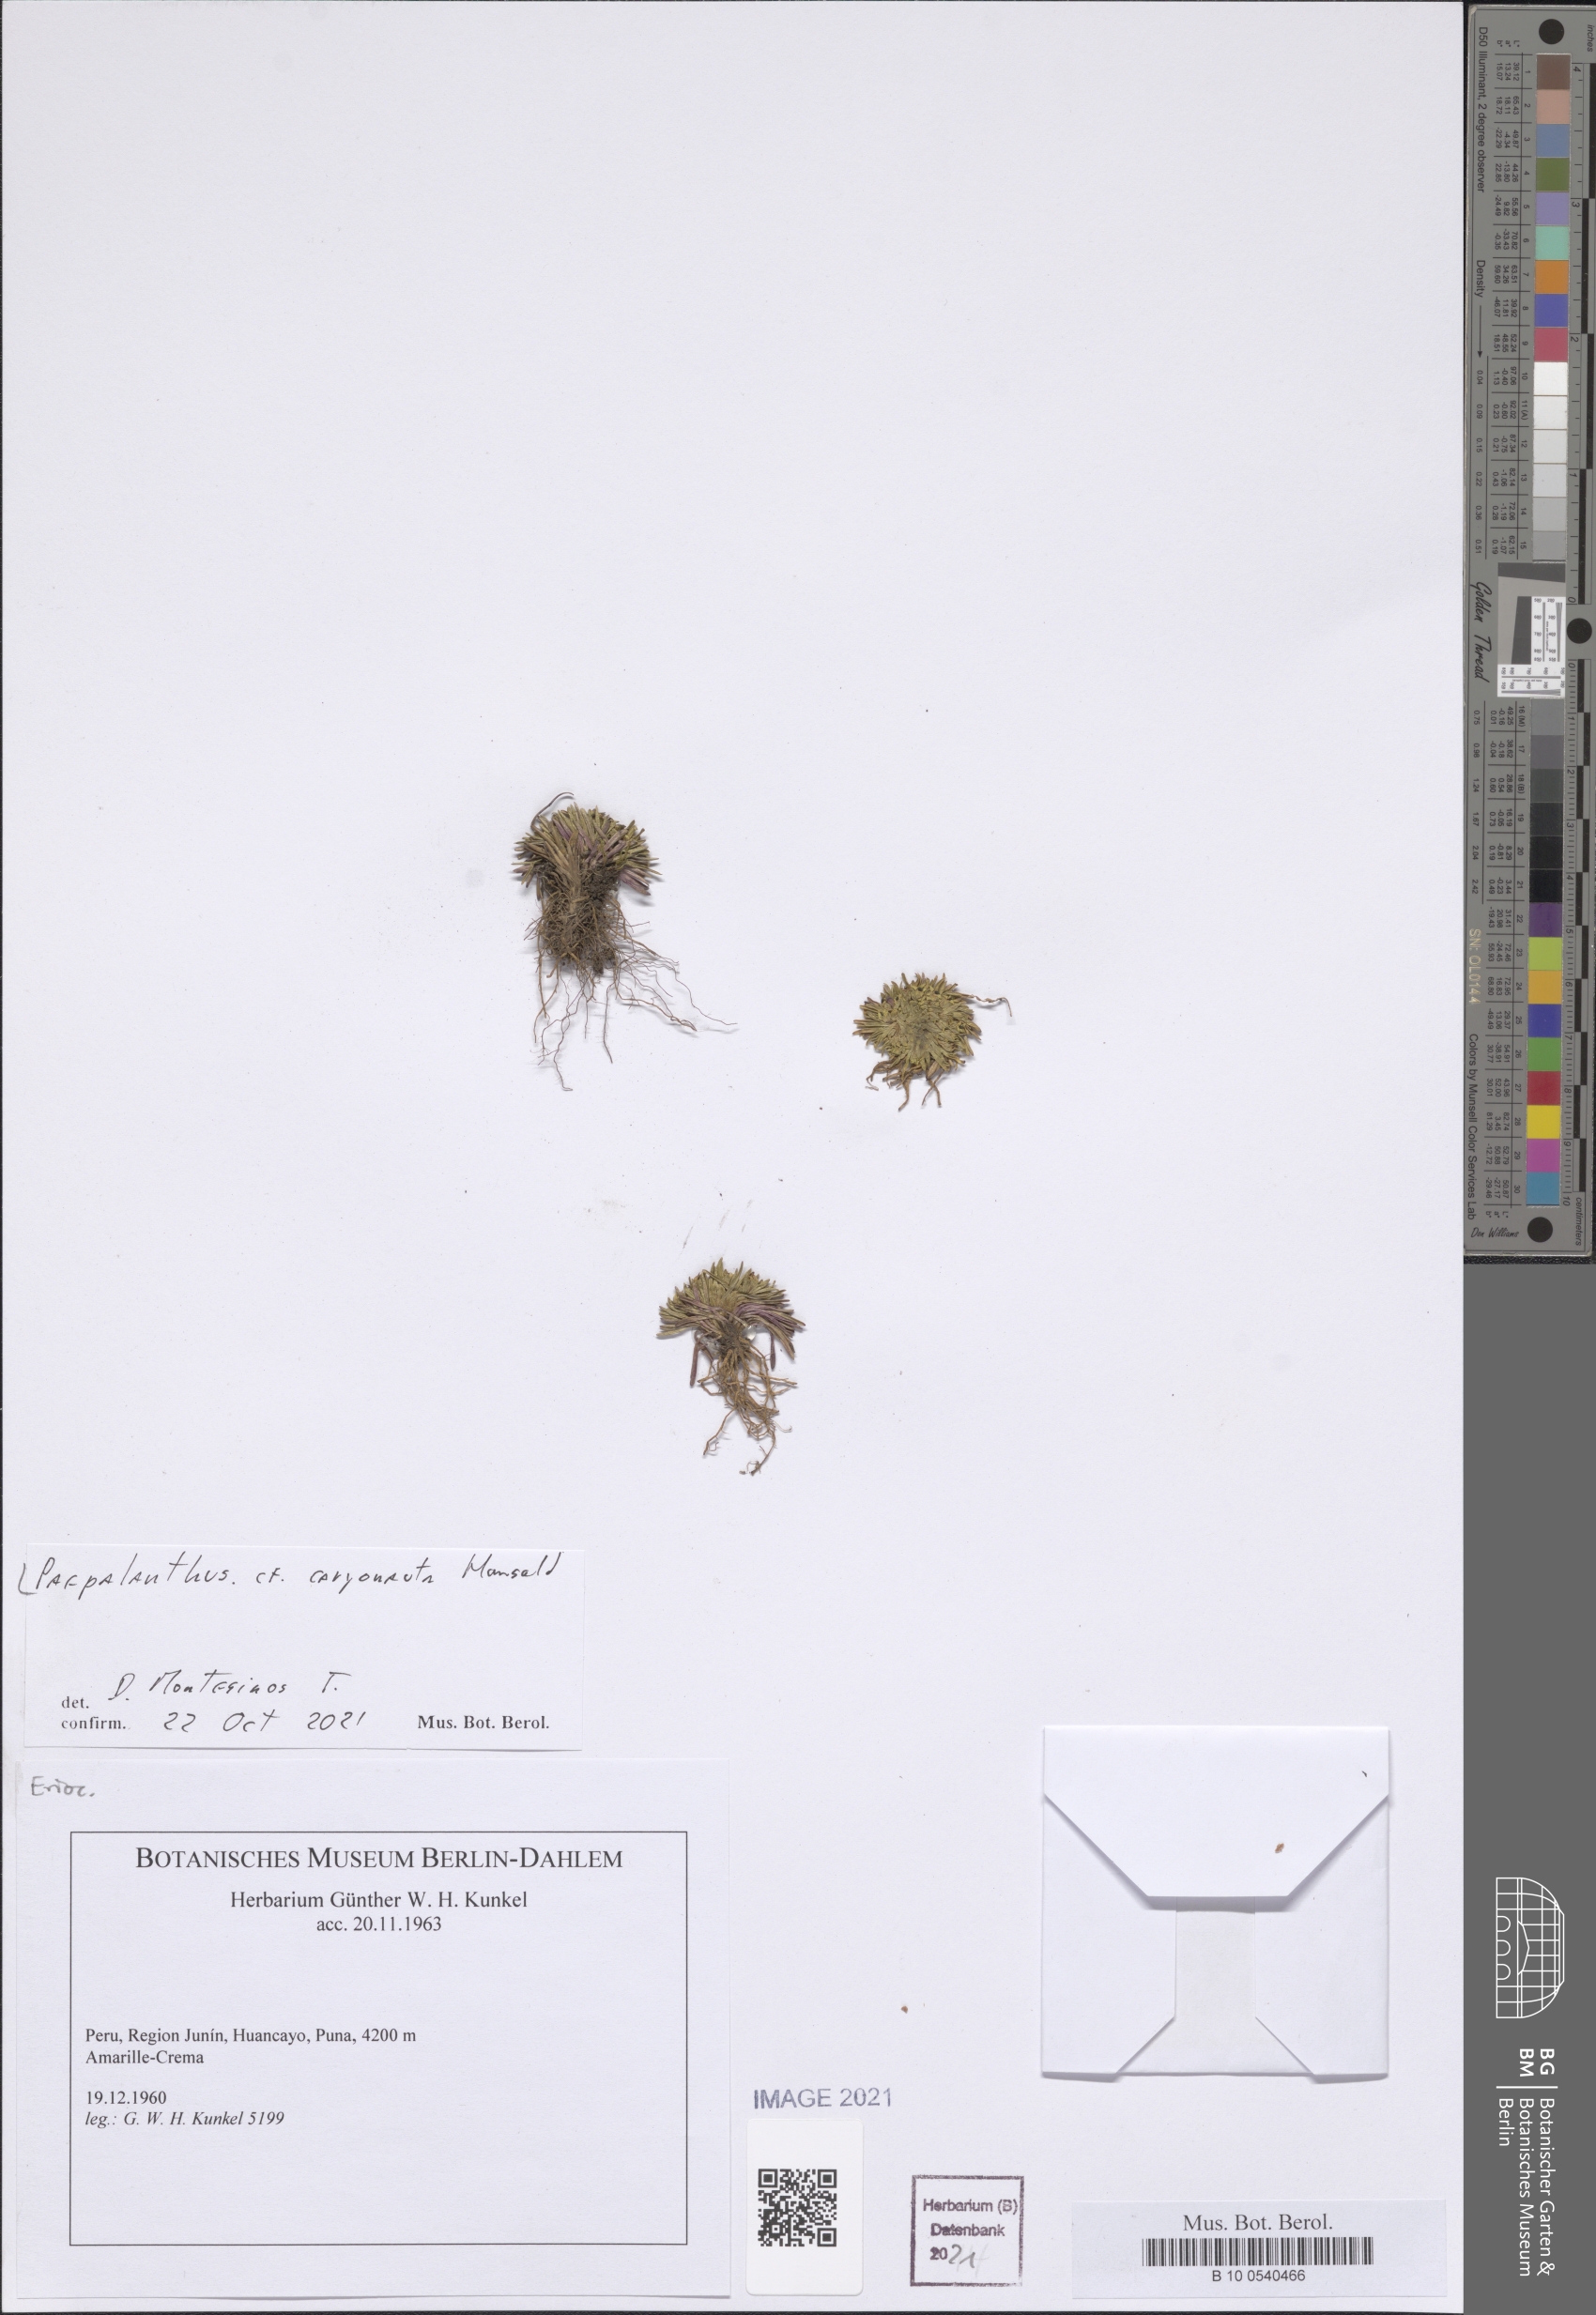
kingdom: Plantae
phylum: Tracheophyta
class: Liliopsida
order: Poales
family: Eriocaulaceae
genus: Paepalanthus
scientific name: Paepalanthus caryonauta
